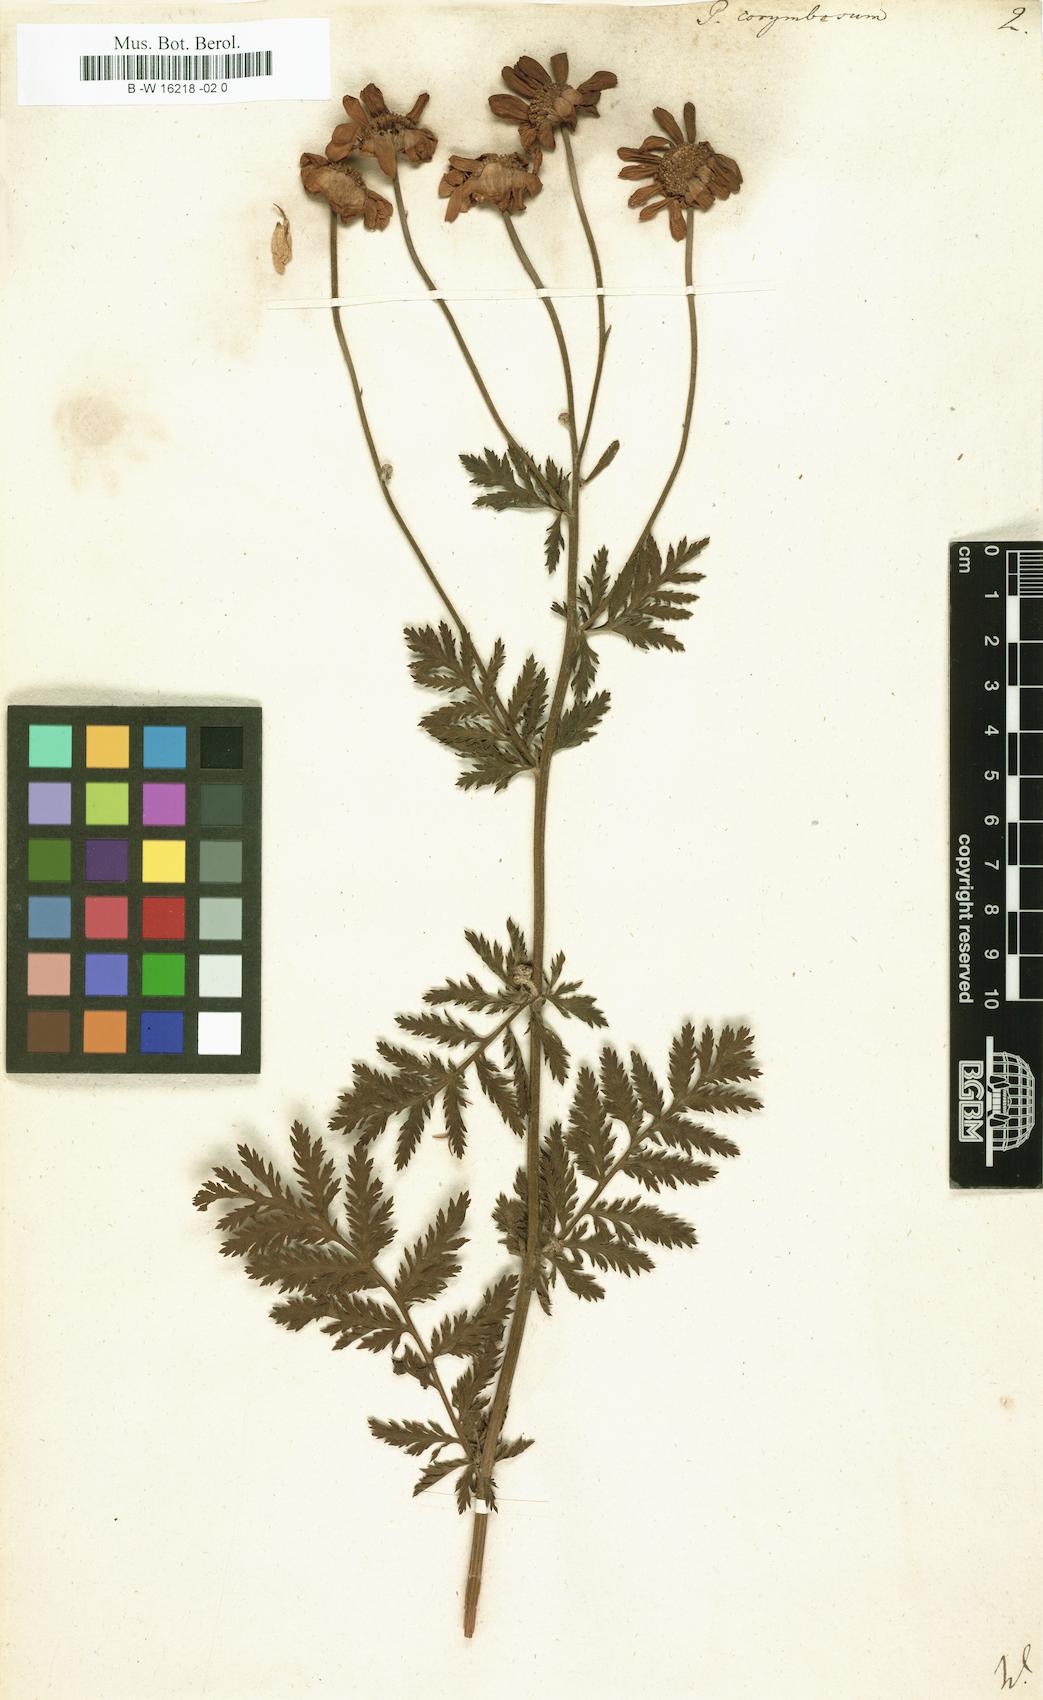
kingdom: Plantae
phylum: Tracheophyta
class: Magnoliopsida
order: Asterales
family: Asteraceae
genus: Acmella
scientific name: Acmella Pyrethrum corymbosum
